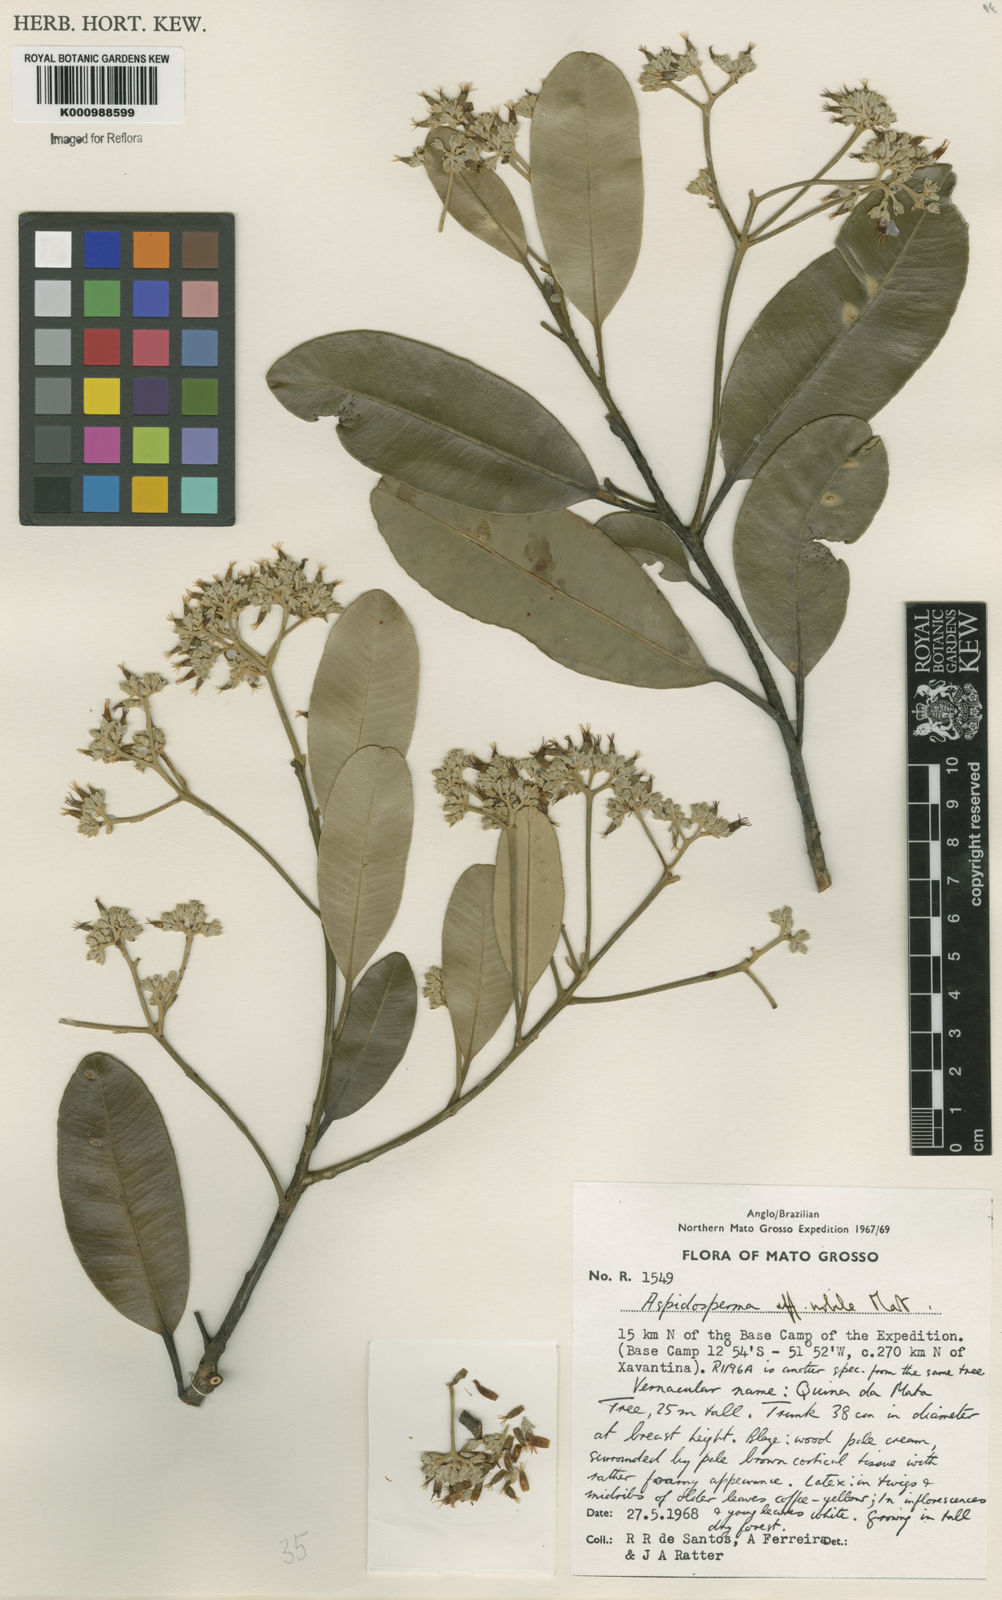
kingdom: Plantae
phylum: Tracheophyta
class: Magnoliopsida
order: Gentianales
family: Apocynaceae
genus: Aspidosperma
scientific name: Aspidosperma
